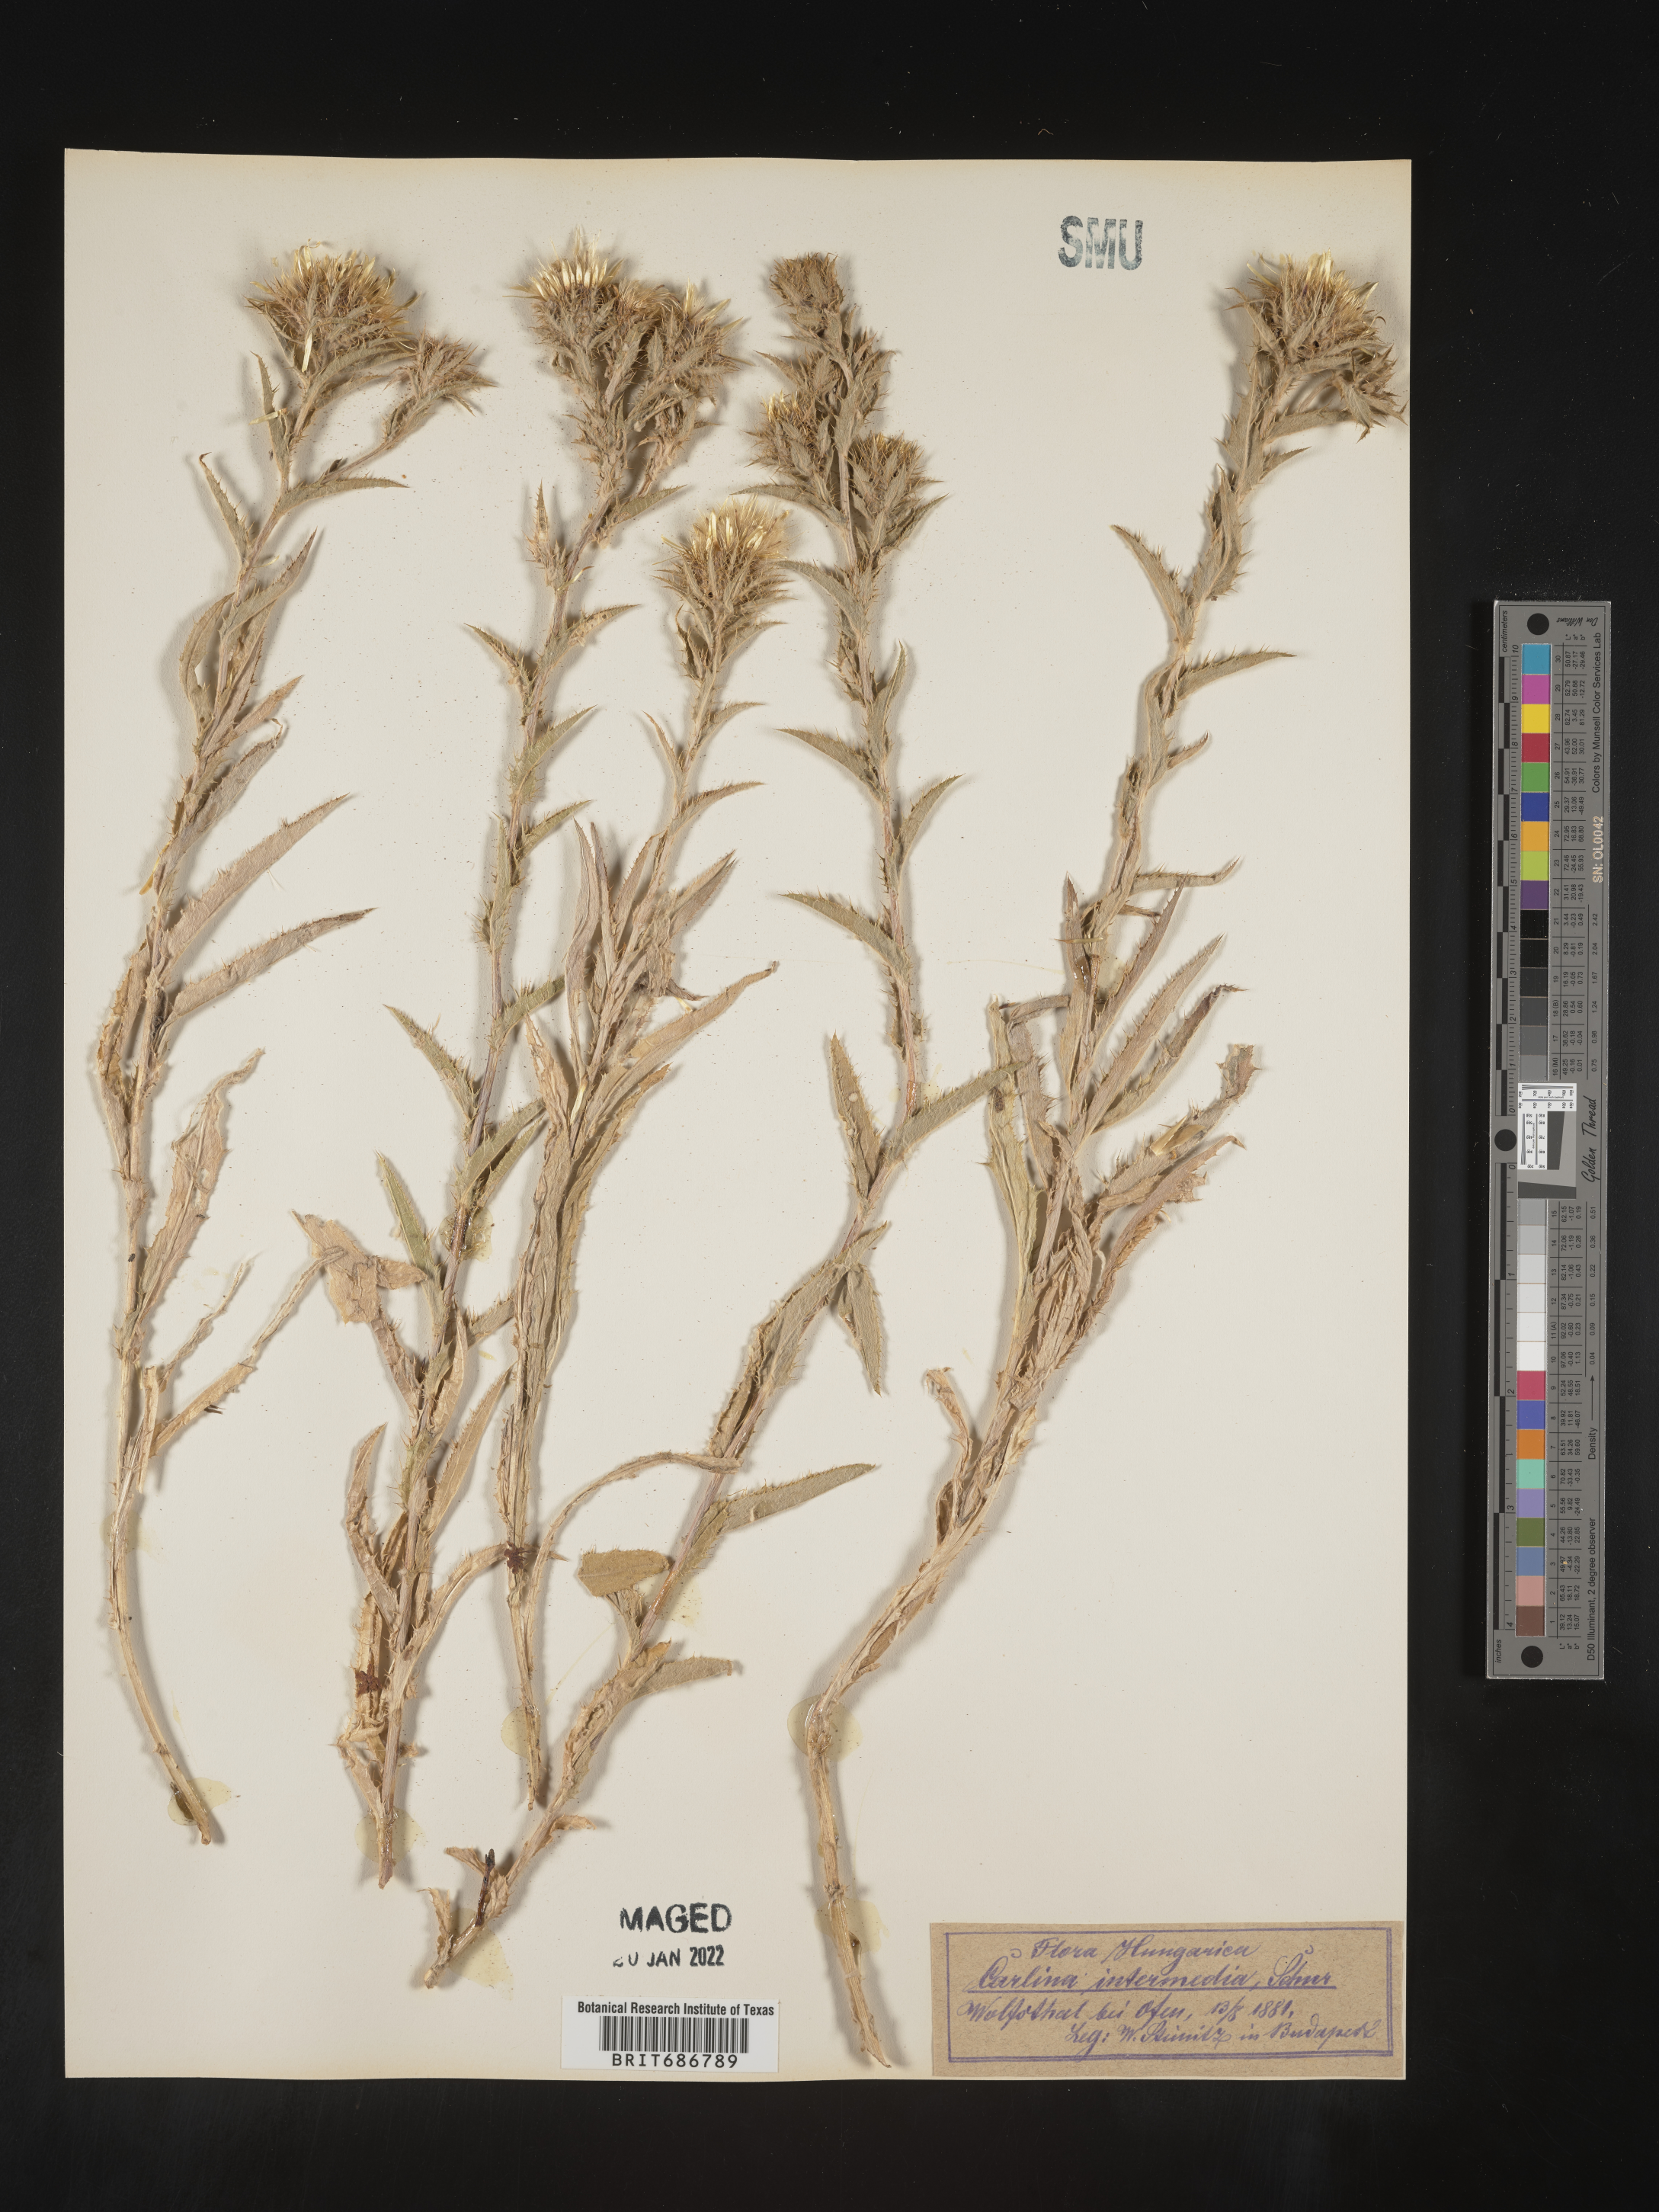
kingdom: Plantae
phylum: Tracheophyta
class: Magnoliopsida
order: Asterales
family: Asteraceae
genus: Carlina
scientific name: Carlina
